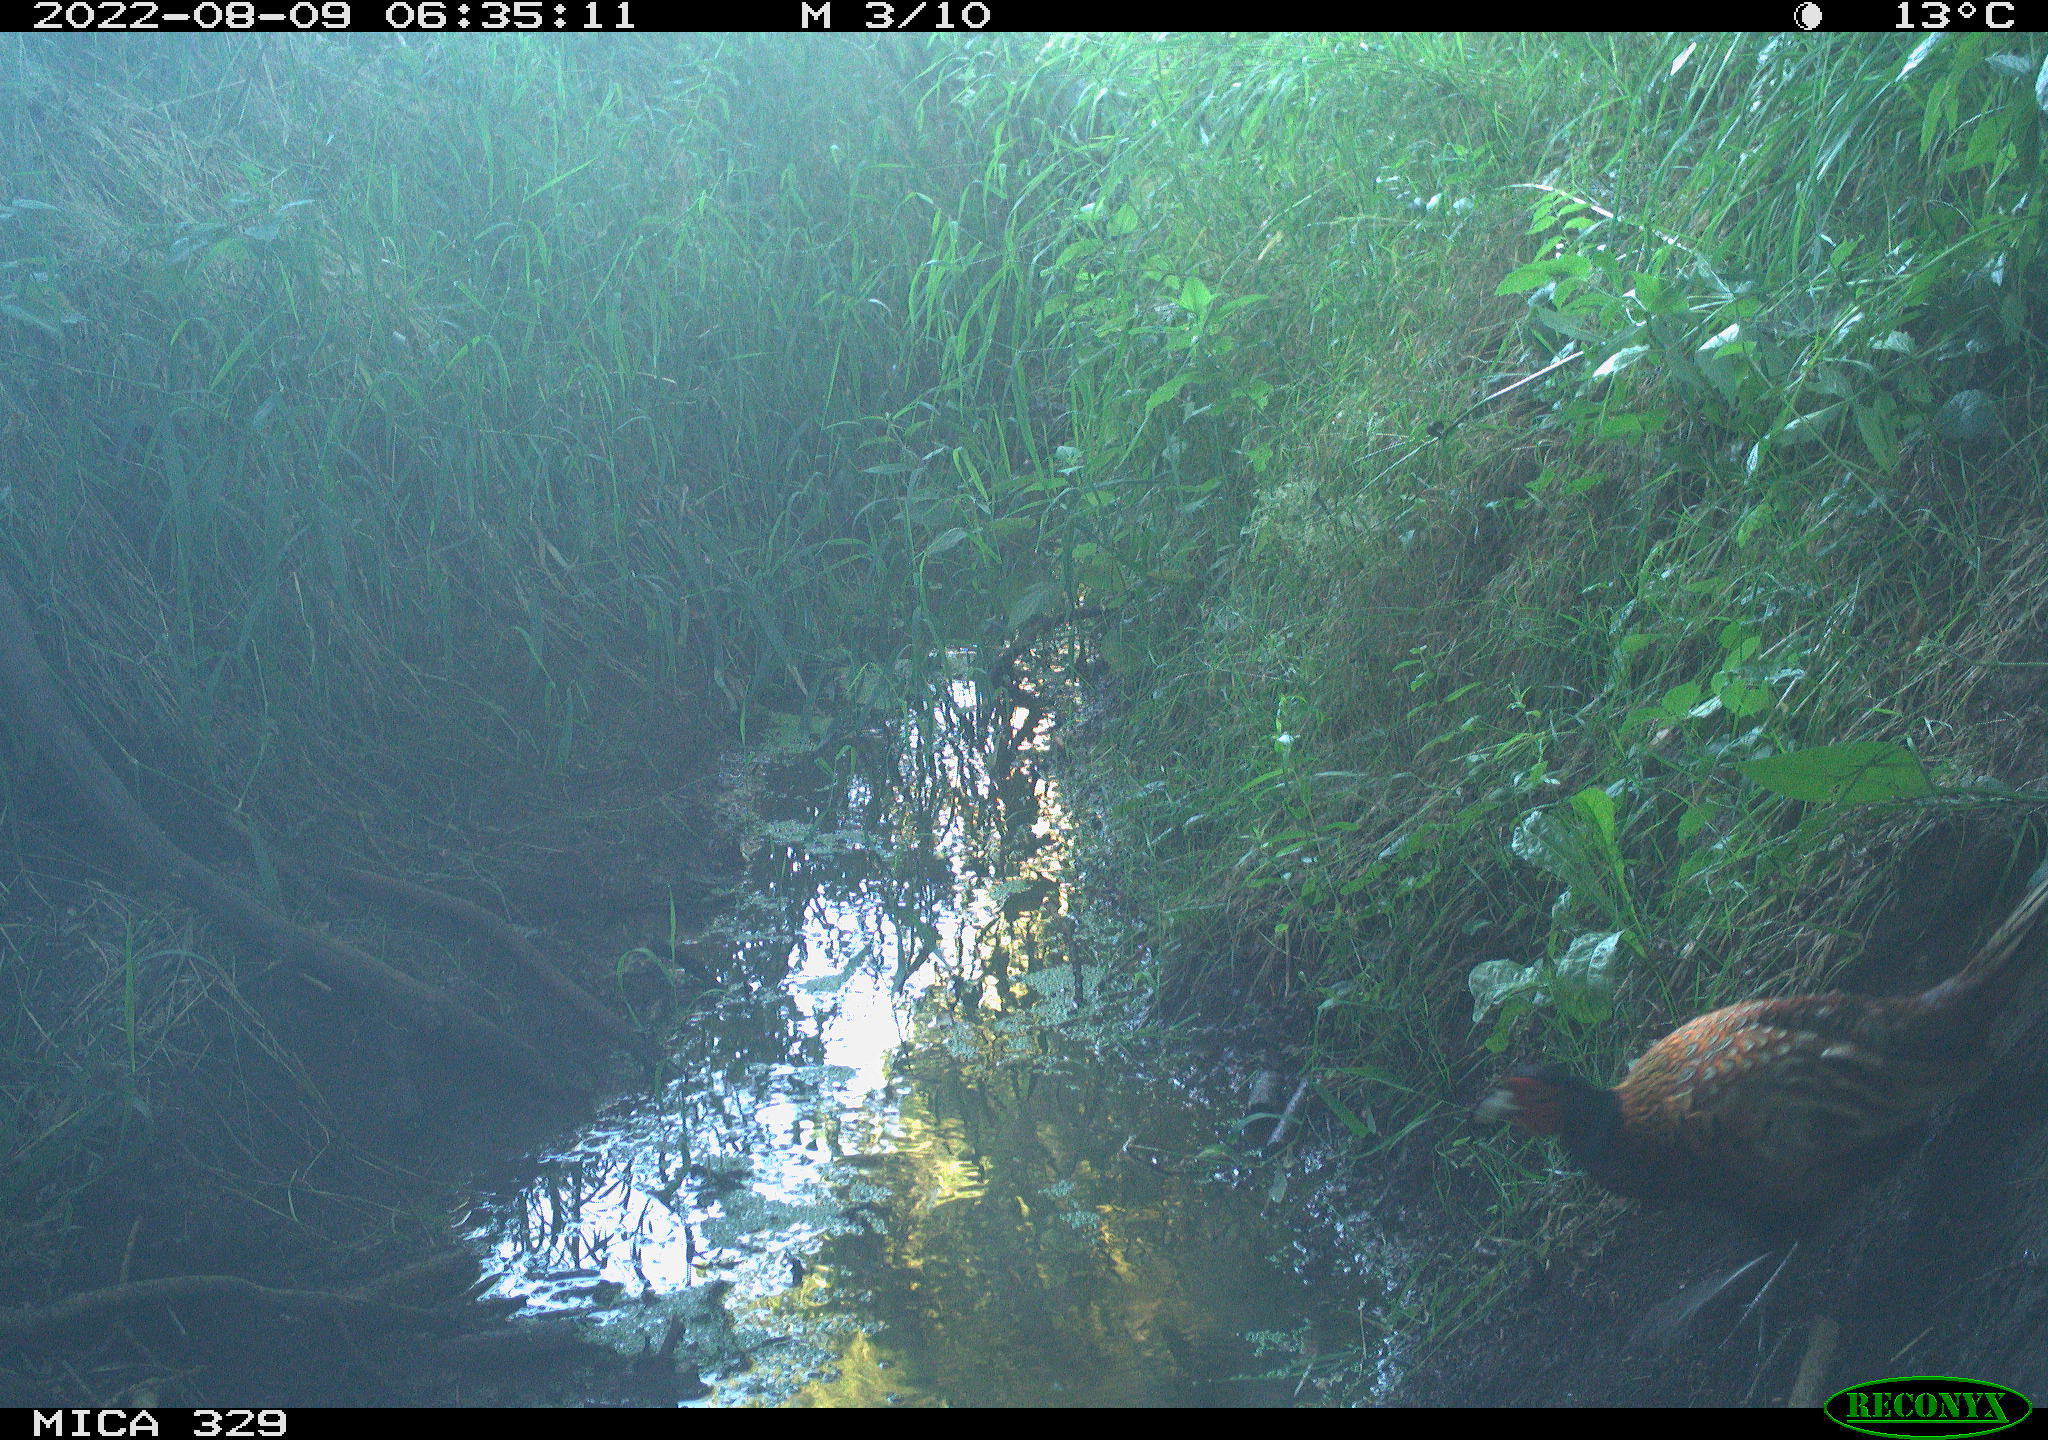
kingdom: Animalia
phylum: Chordata
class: Aves
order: Galliformes
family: Phasianidae
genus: Phasianus
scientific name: Phasianus colchicus
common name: Common pheasant
